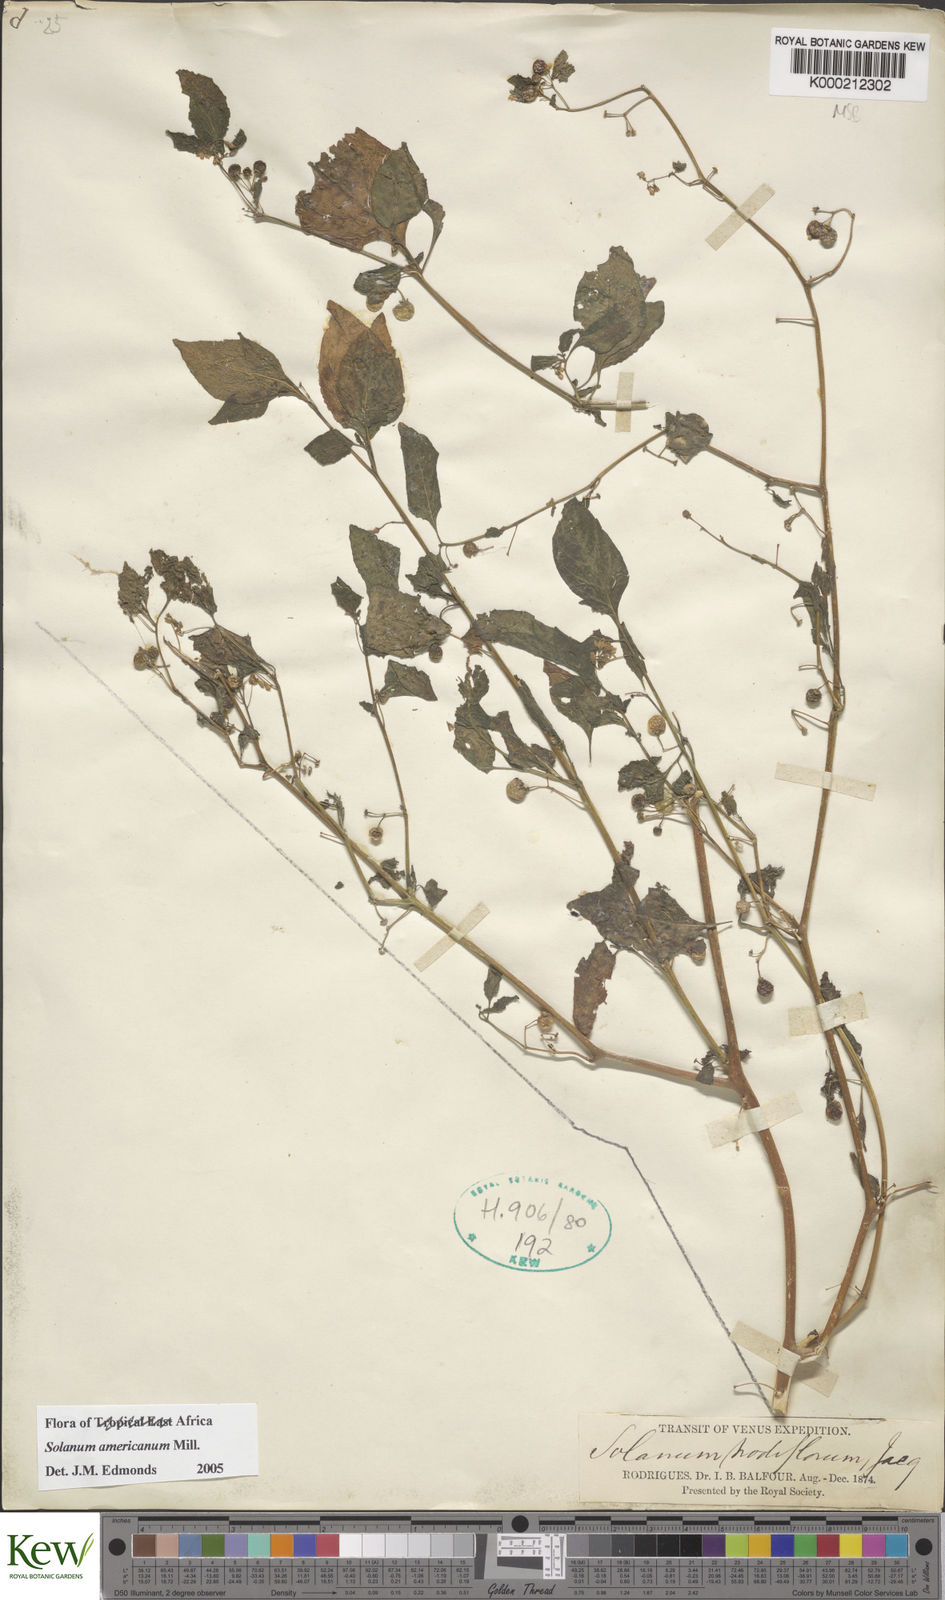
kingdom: Plantae
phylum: Tracheophyta
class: Magnoliopsida
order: Solanales
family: Solanaceae
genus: Solanum
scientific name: Solanum americanum
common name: American black nightshade
